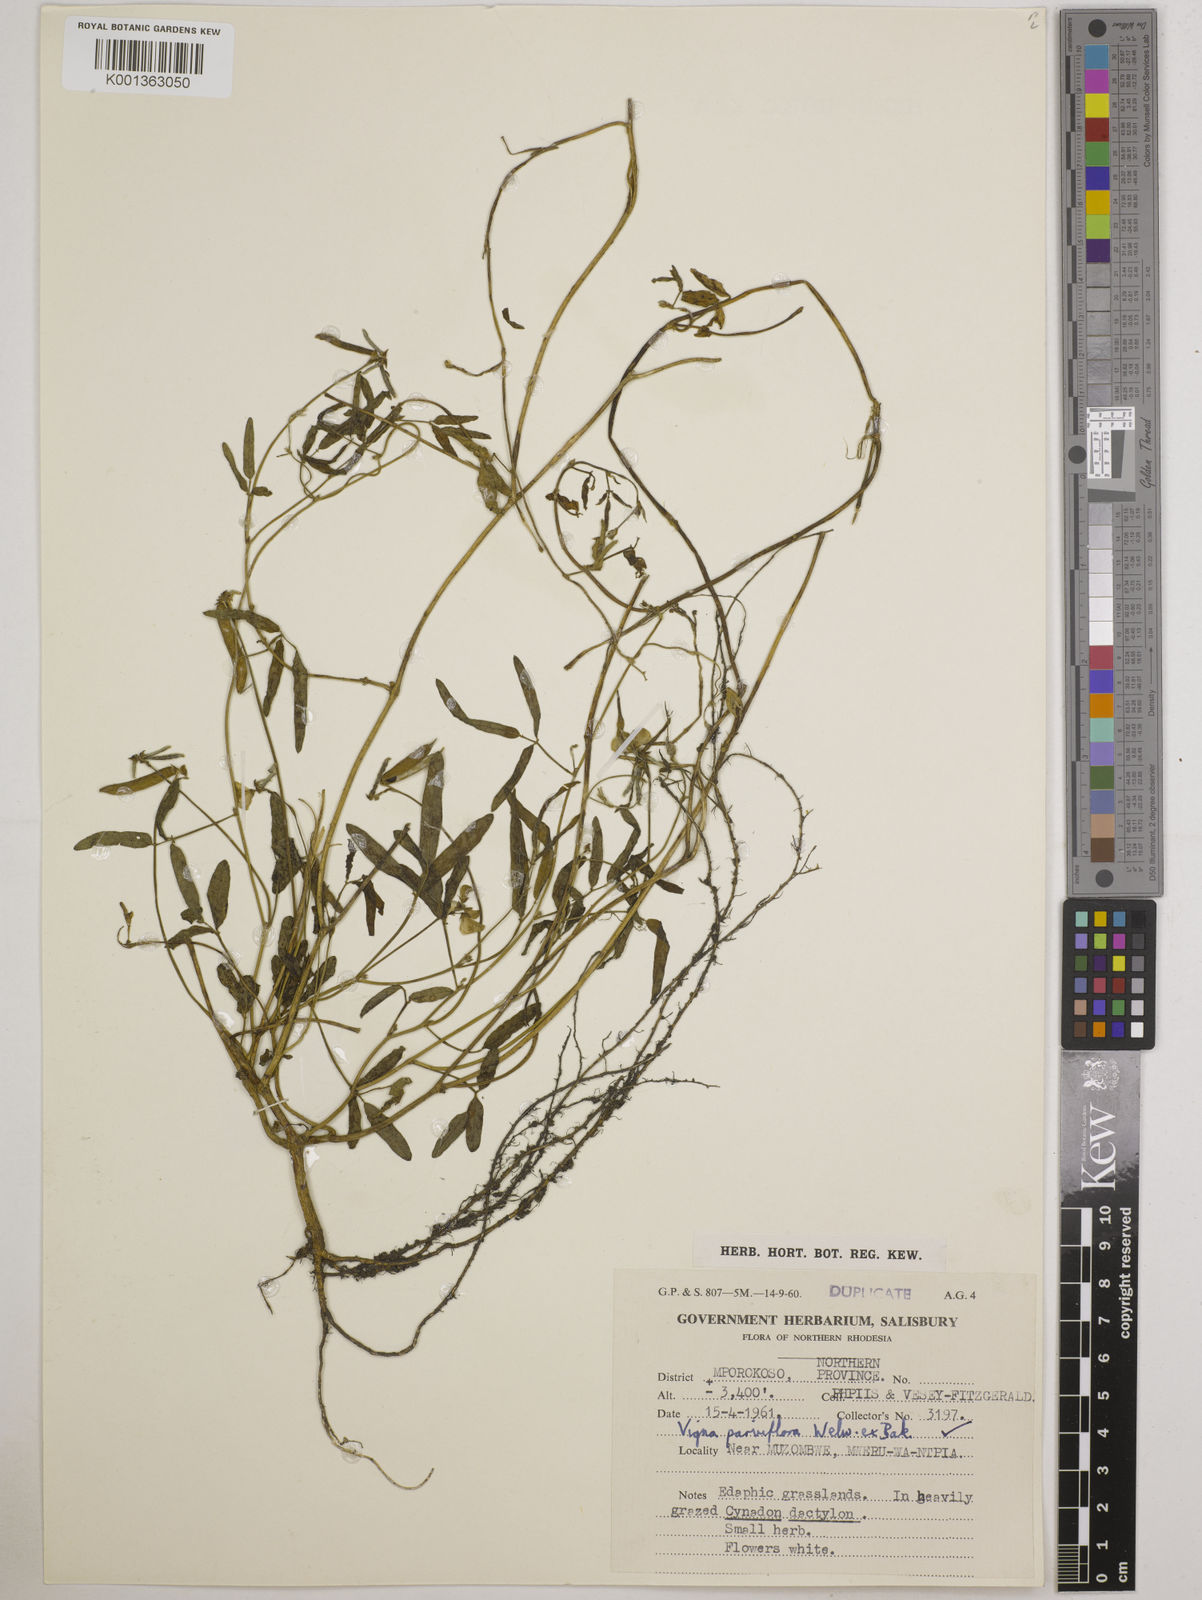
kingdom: Plantae
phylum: Tracheophyta
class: Magnoliopsida
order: Fabales
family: Fabaceae
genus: Vigna
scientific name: Vigna
